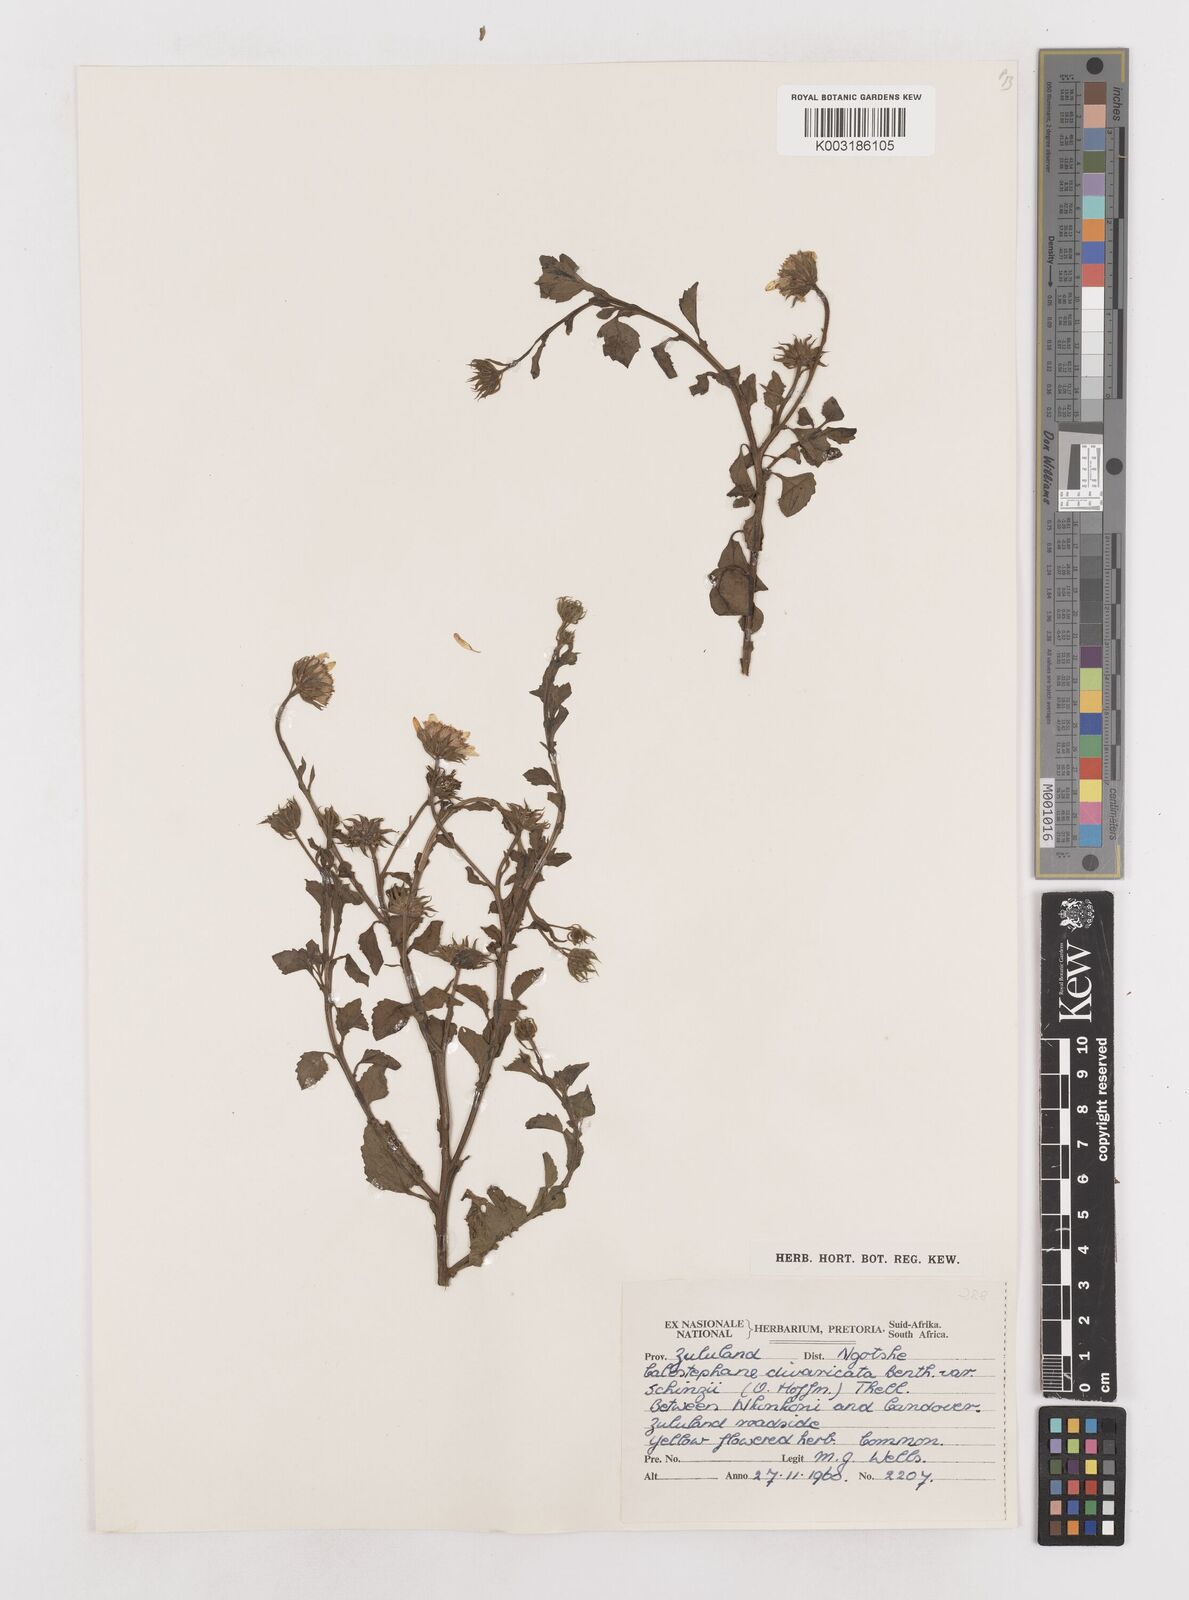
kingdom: Plantae
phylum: Tracheophyta
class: Magnoliopsida
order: Asterales
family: Asteraceae
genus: Calostephane
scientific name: Calostephane divaricata
